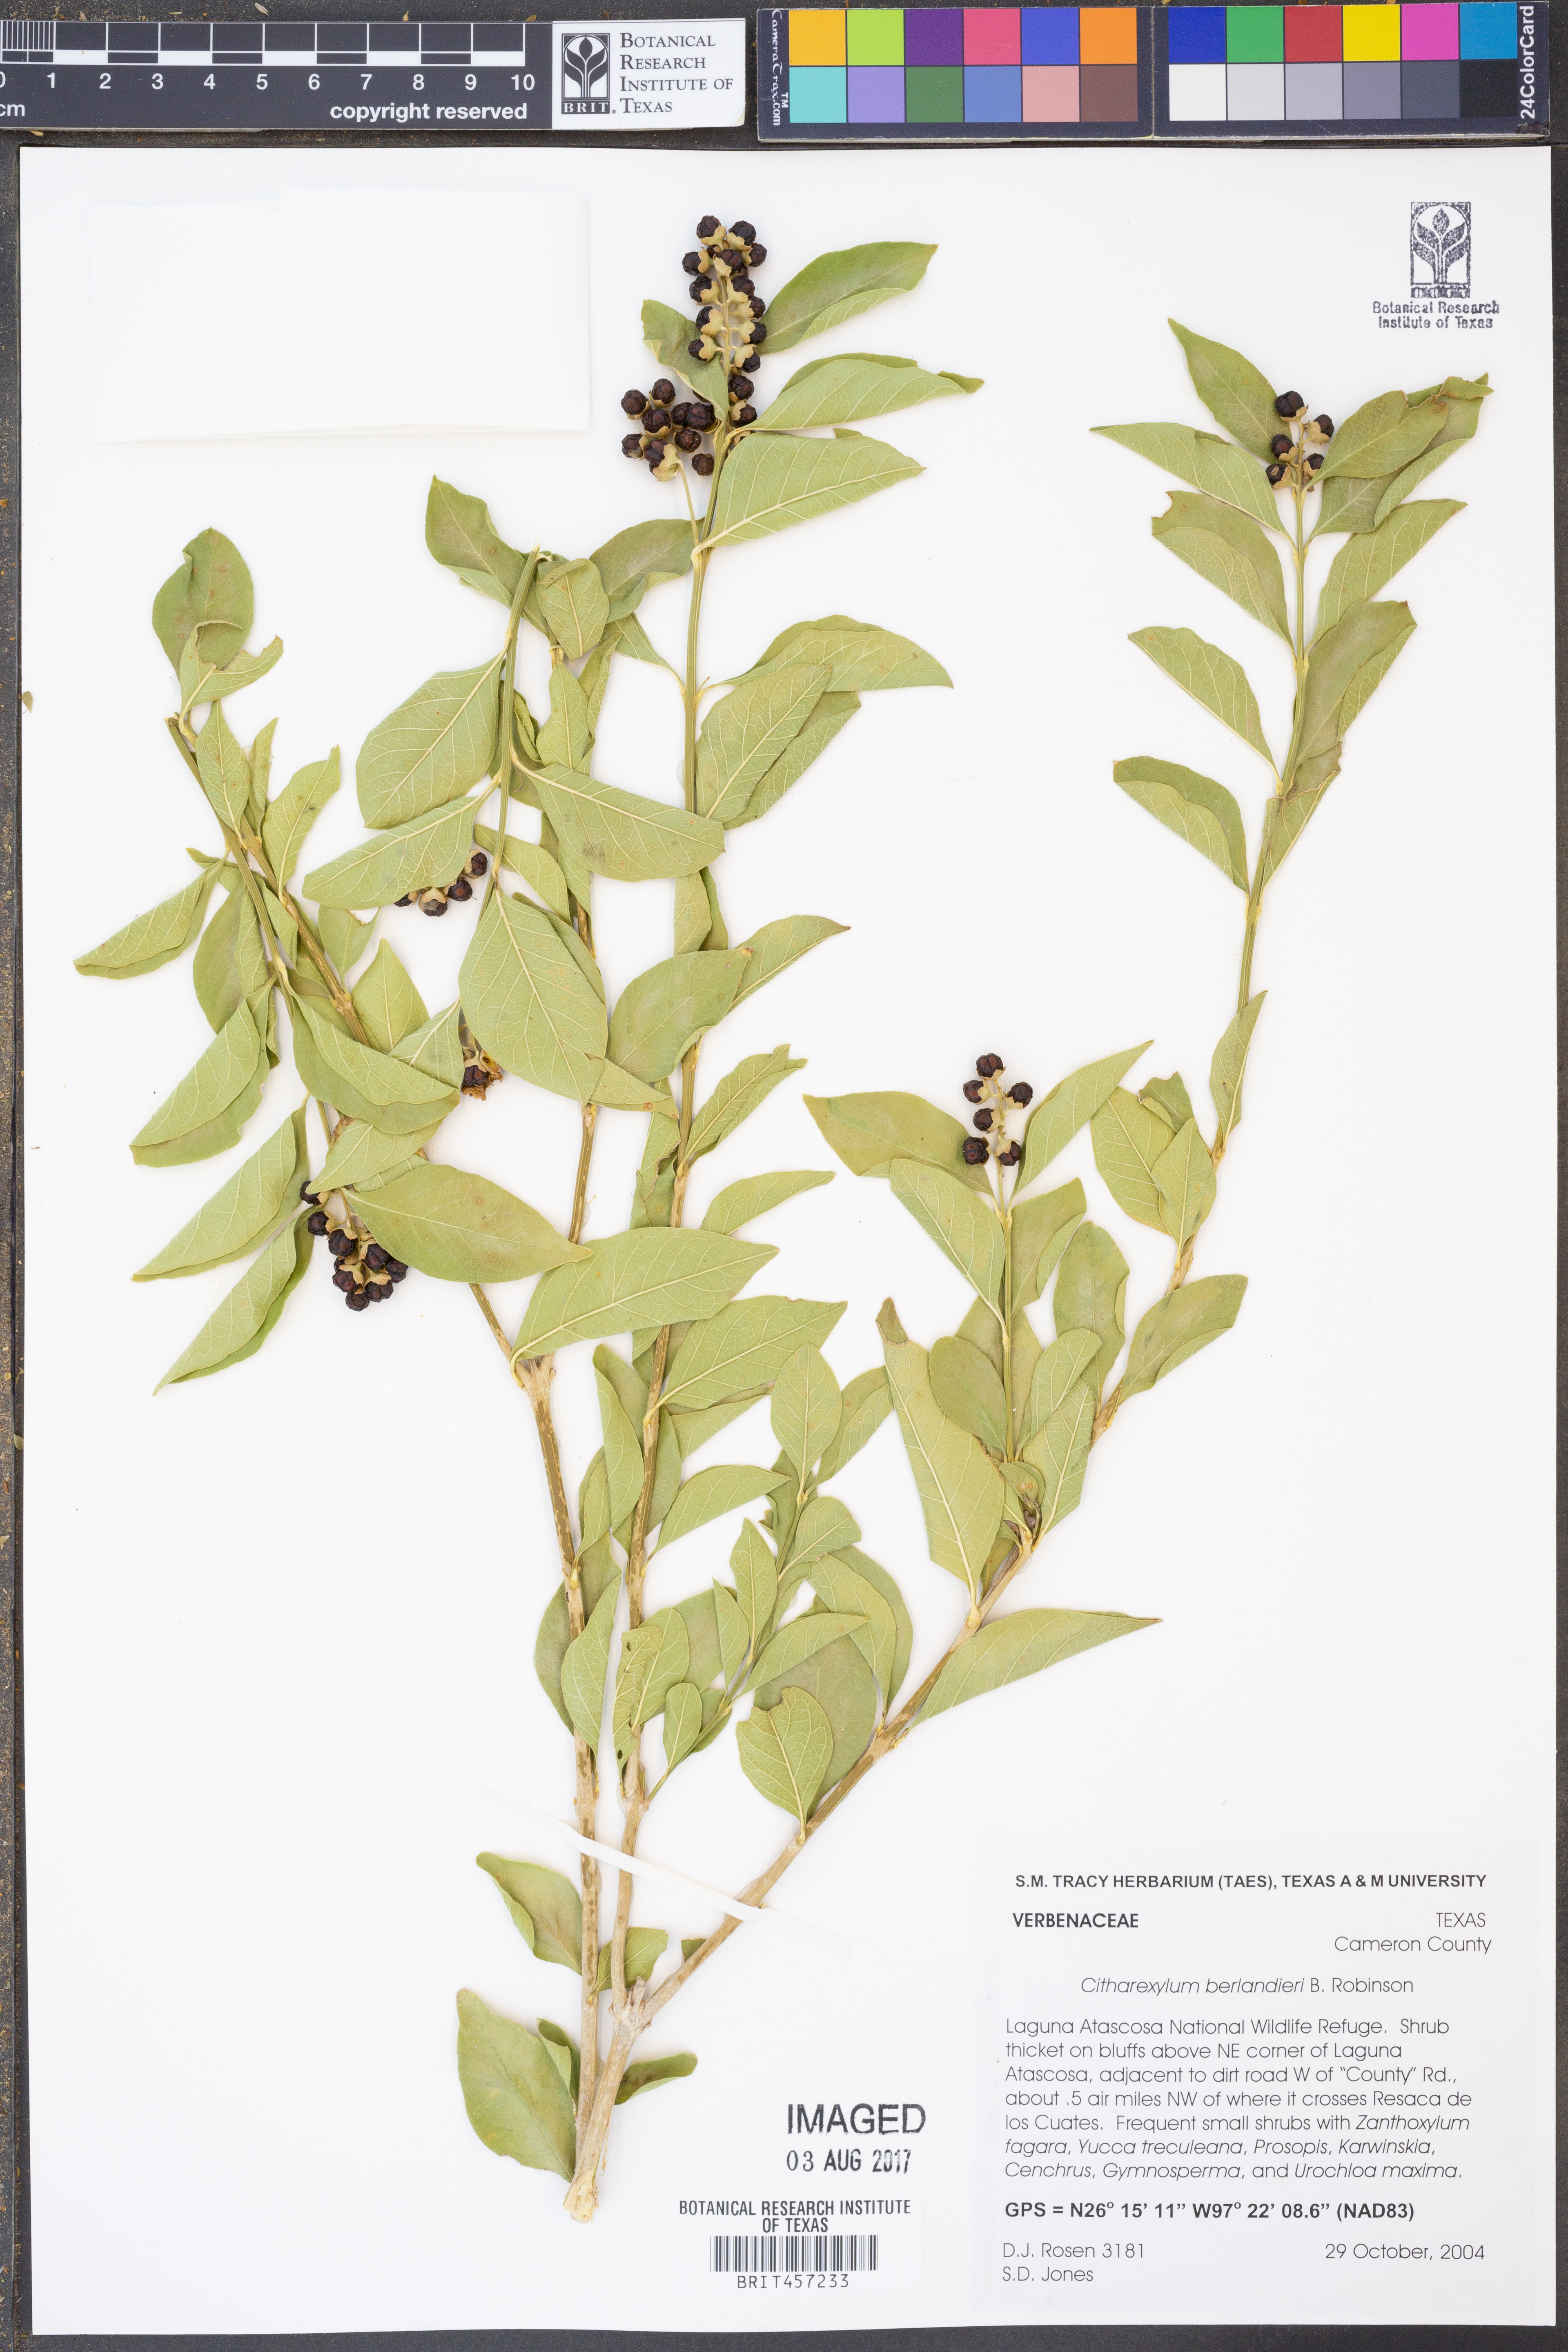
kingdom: Plantae
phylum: Tracheophyta
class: Magnoliopsida
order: Lamiales
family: Verbenaceae
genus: Citharexylum
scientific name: Citharexylum berlandieri
